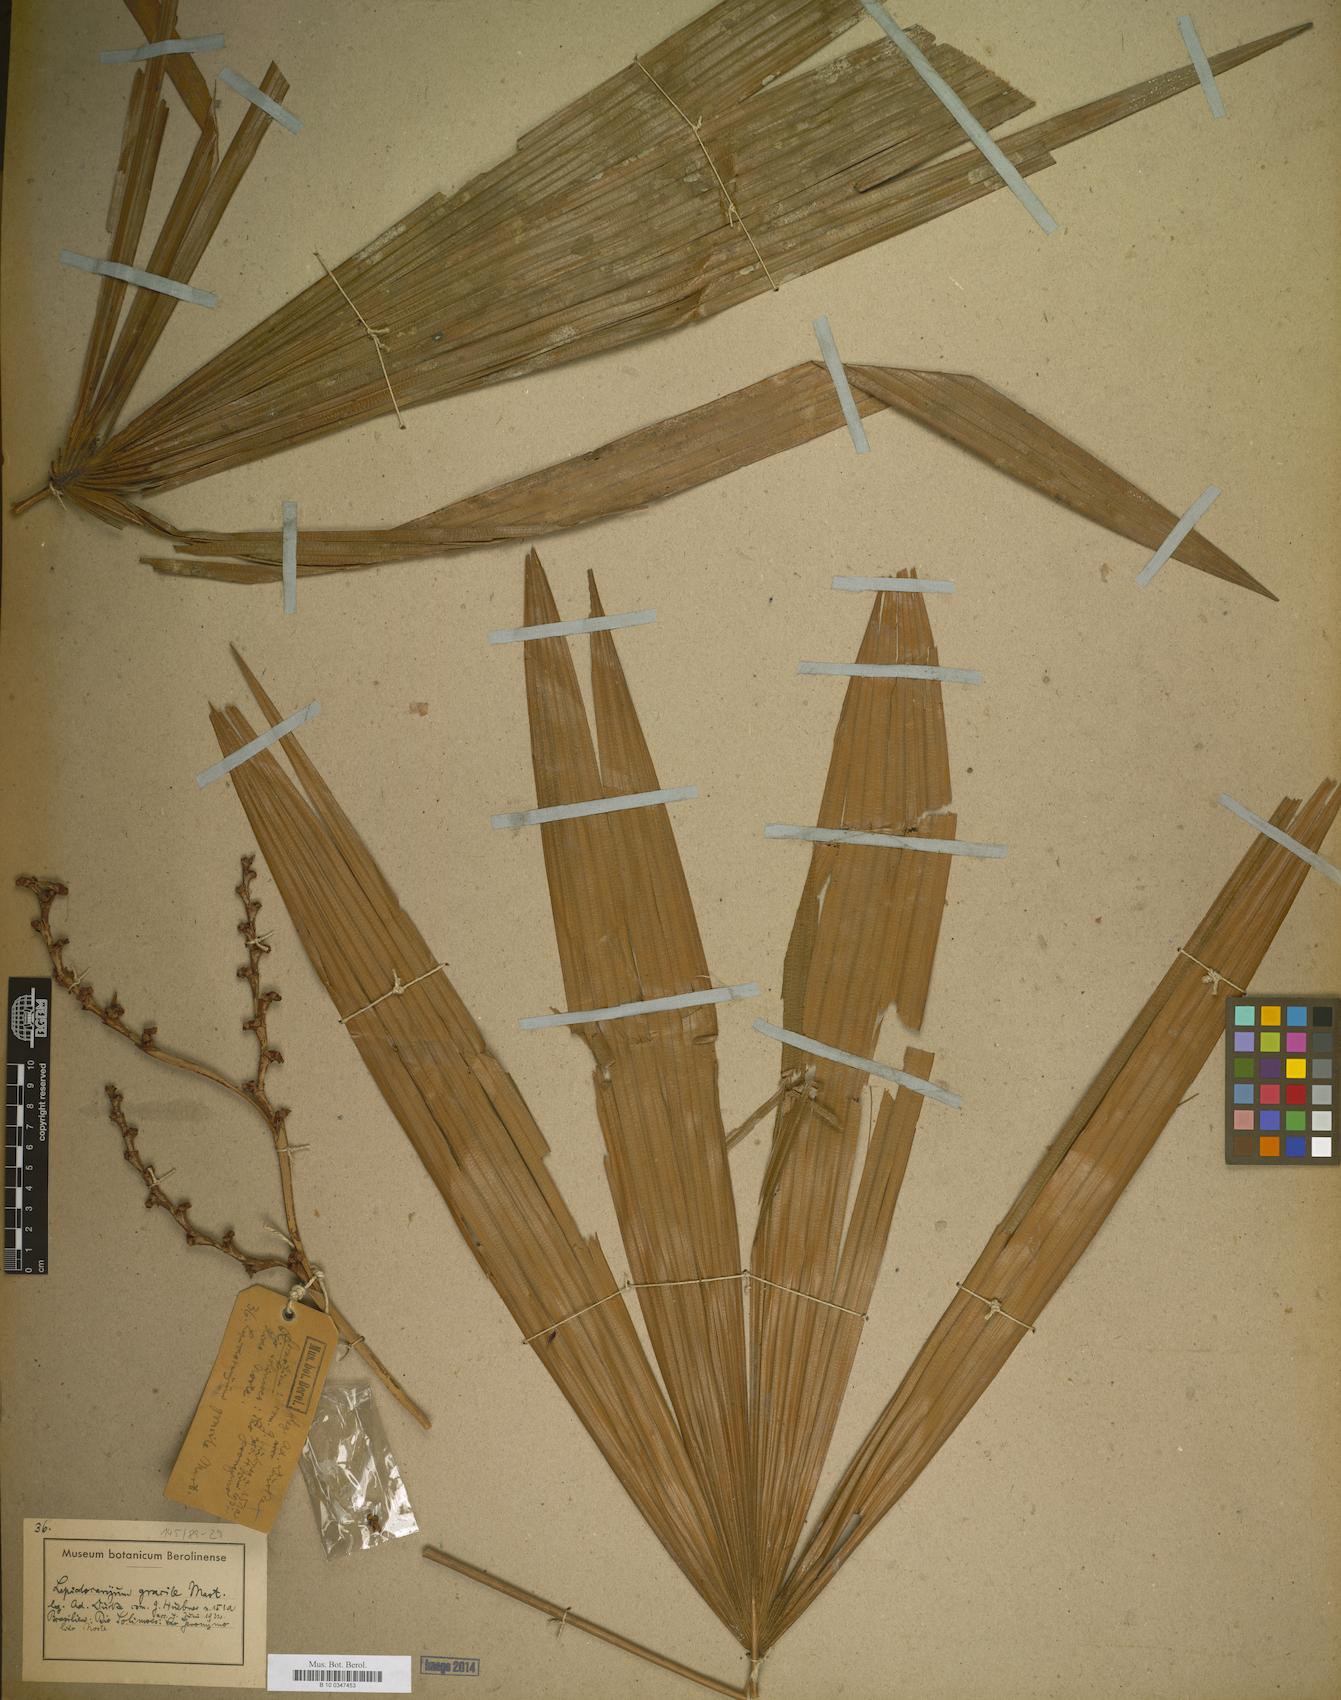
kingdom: Plantae
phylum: Tracheophyta
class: Liliopsida
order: Arecales
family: Arecaceae
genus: Lepidocaryum
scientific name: Lepidocaryum tenue
